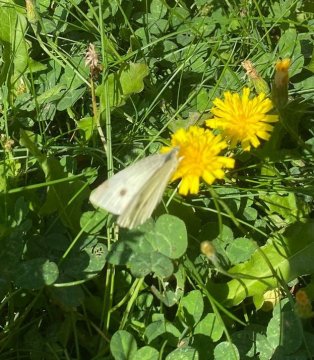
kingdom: Animalia
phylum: Arthropoda
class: Insecta
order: Lepidoptera
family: Pieridae
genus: Pieris
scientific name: Pieris rapae
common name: Cabbage White
